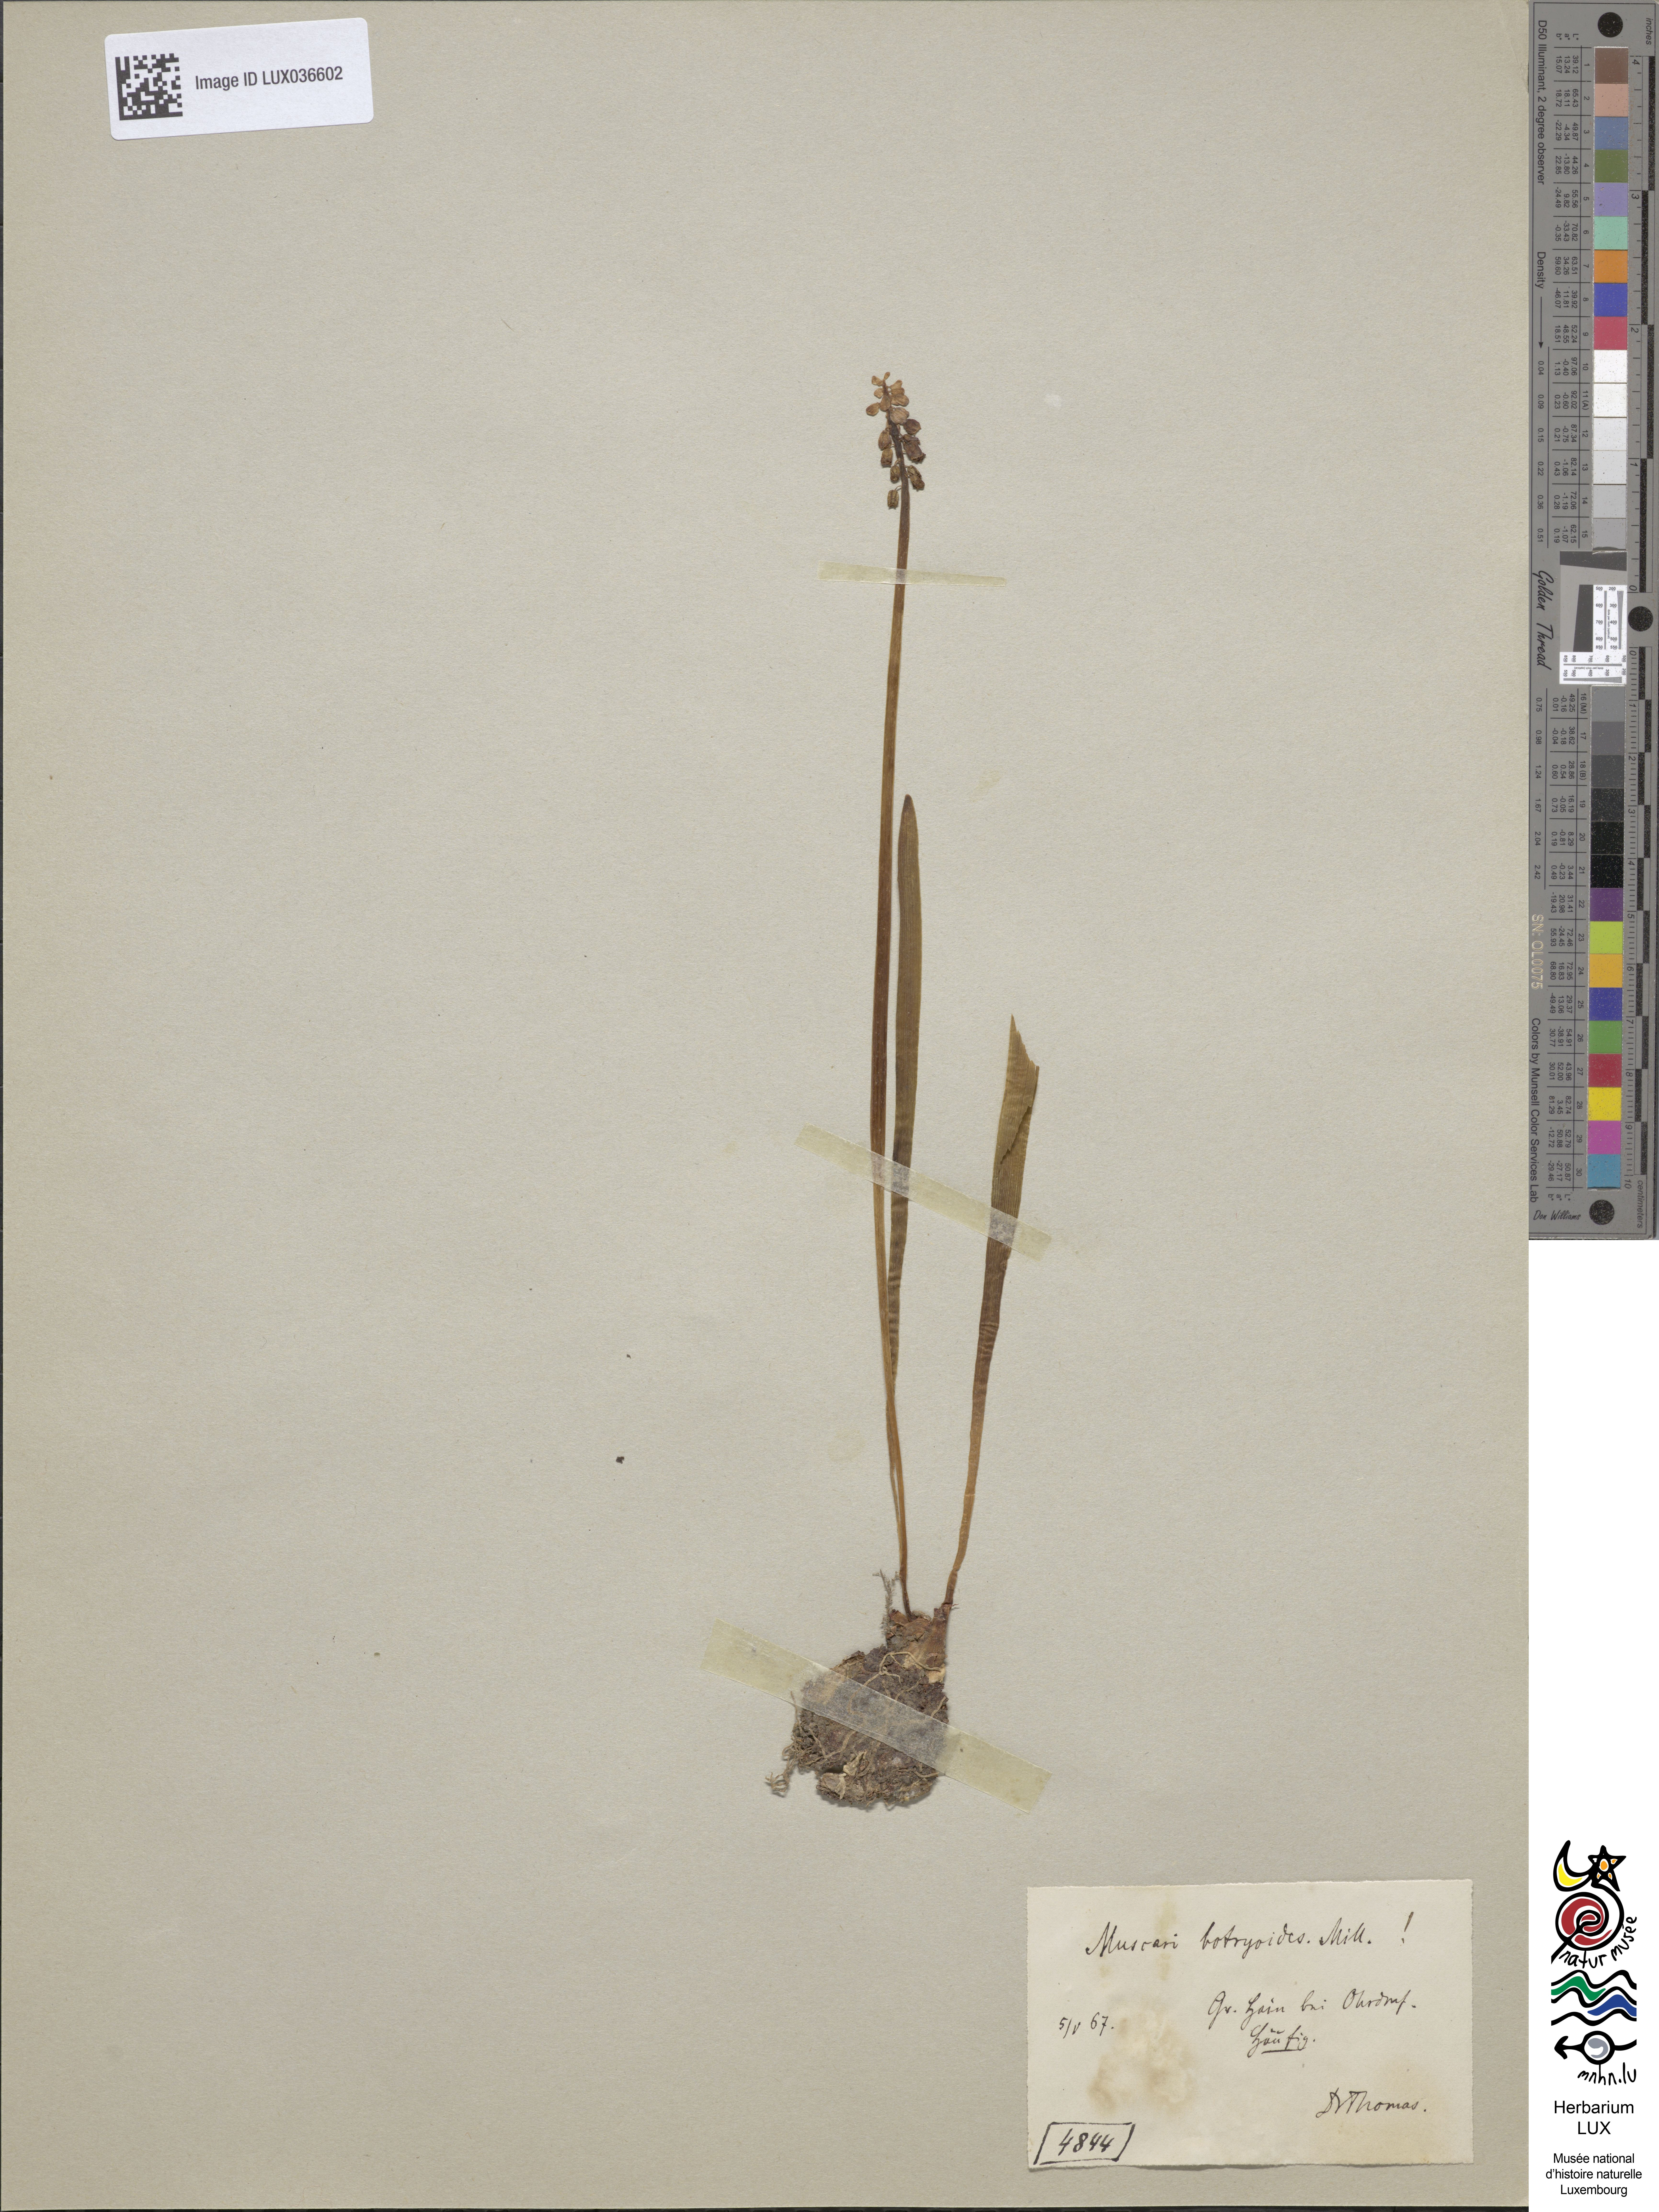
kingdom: Plantae
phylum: Tracheophyta
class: Liliopsida
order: Asparagales
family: Asparagaceae
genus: Muscari
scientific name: Muscari botryoides
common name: Compact grape-hyacinth
